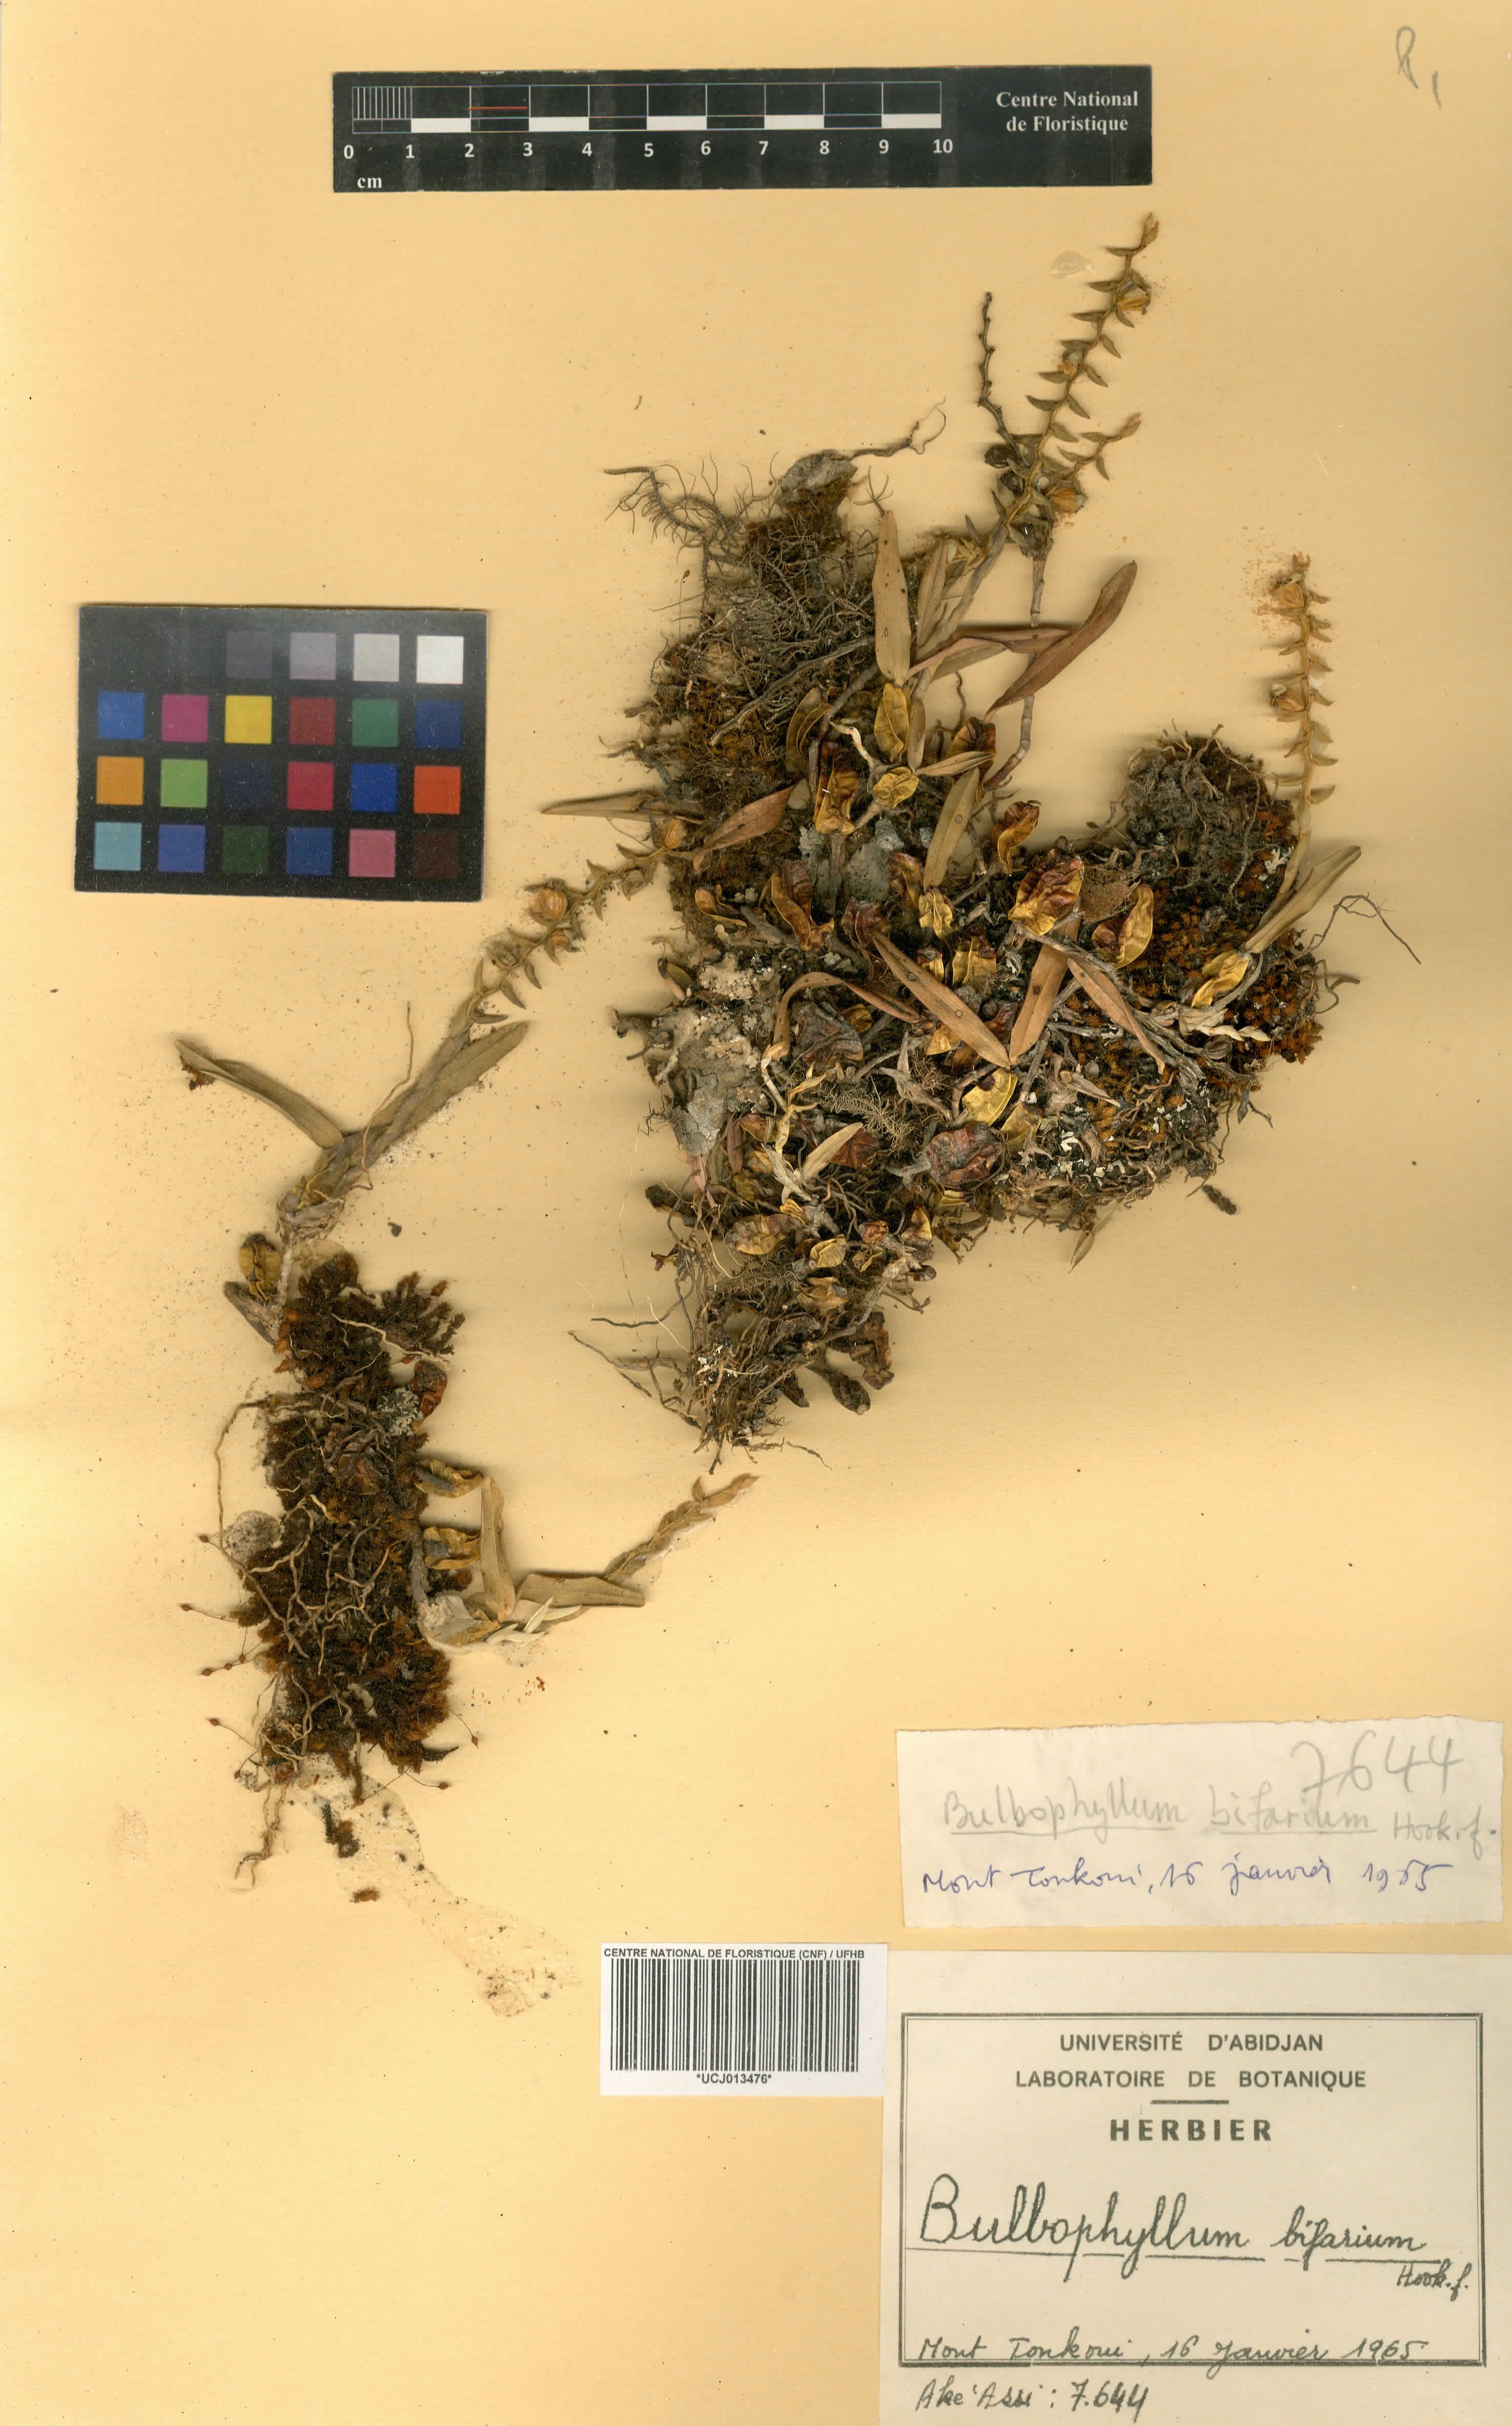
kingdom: Plantae
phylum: Tracheophyta
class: Liliopsida
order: Asparagales
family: Orchidaceae
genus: Bulbophyllum
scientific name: Bulbophyllum bifarium
